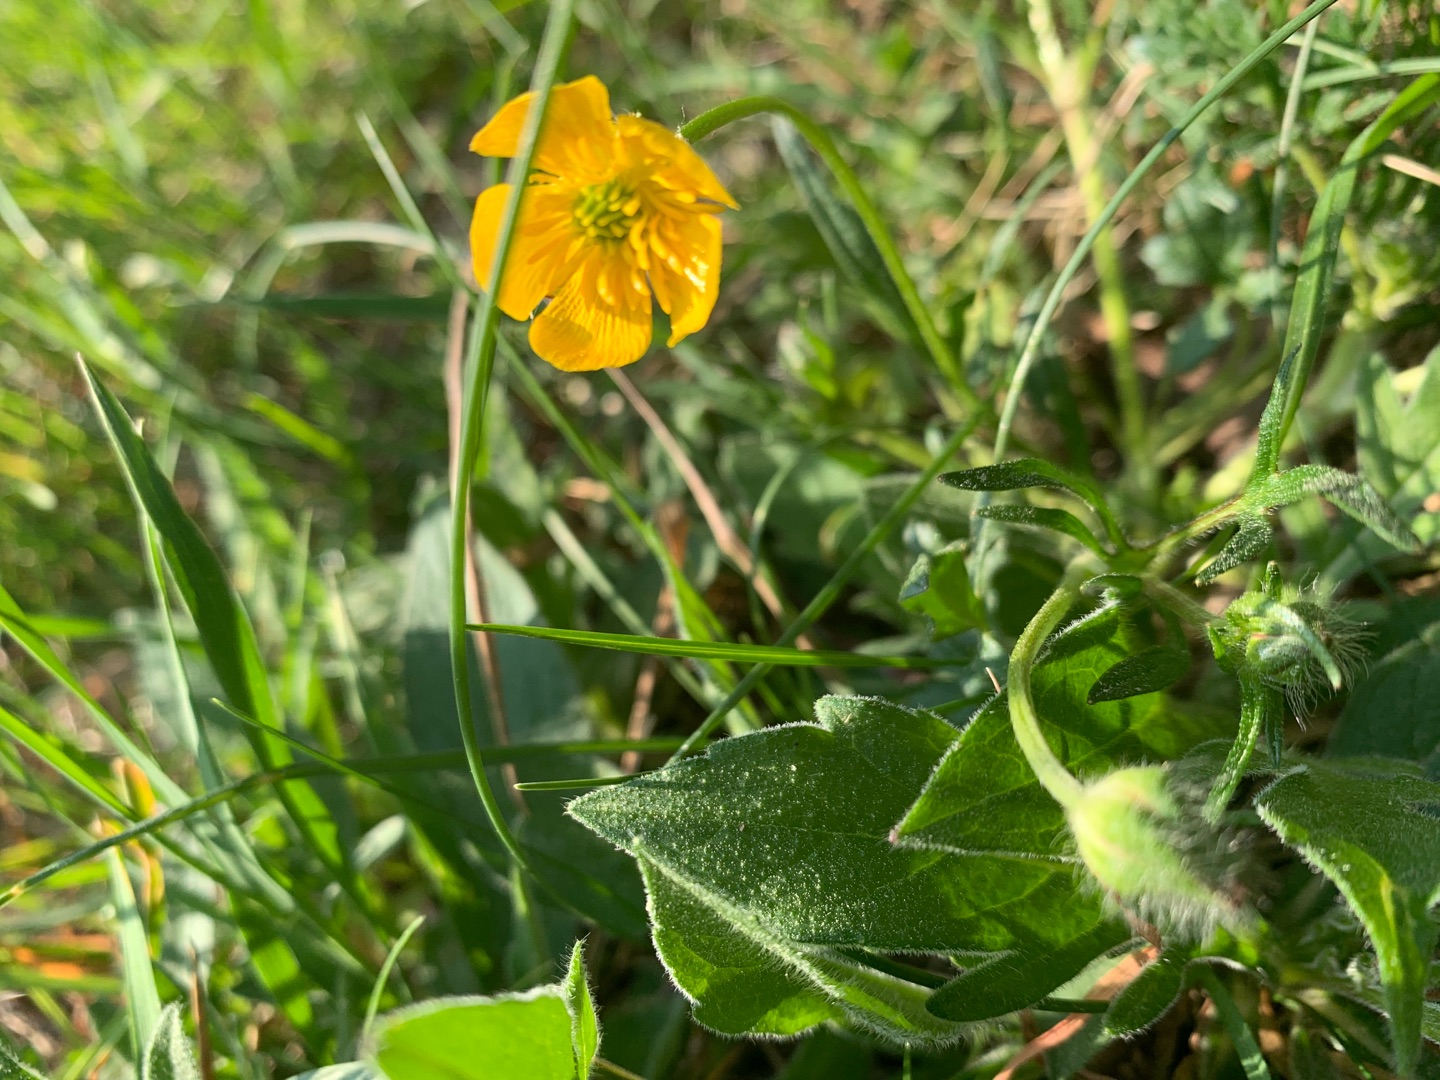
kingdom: Plantae
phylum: Tracheophyta
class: Magnoliopsida
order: Ranunculales
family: Ranunculaceae
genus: Ranunculus
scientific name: Ranunculus bulbosus
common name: Knold-ranunkel
